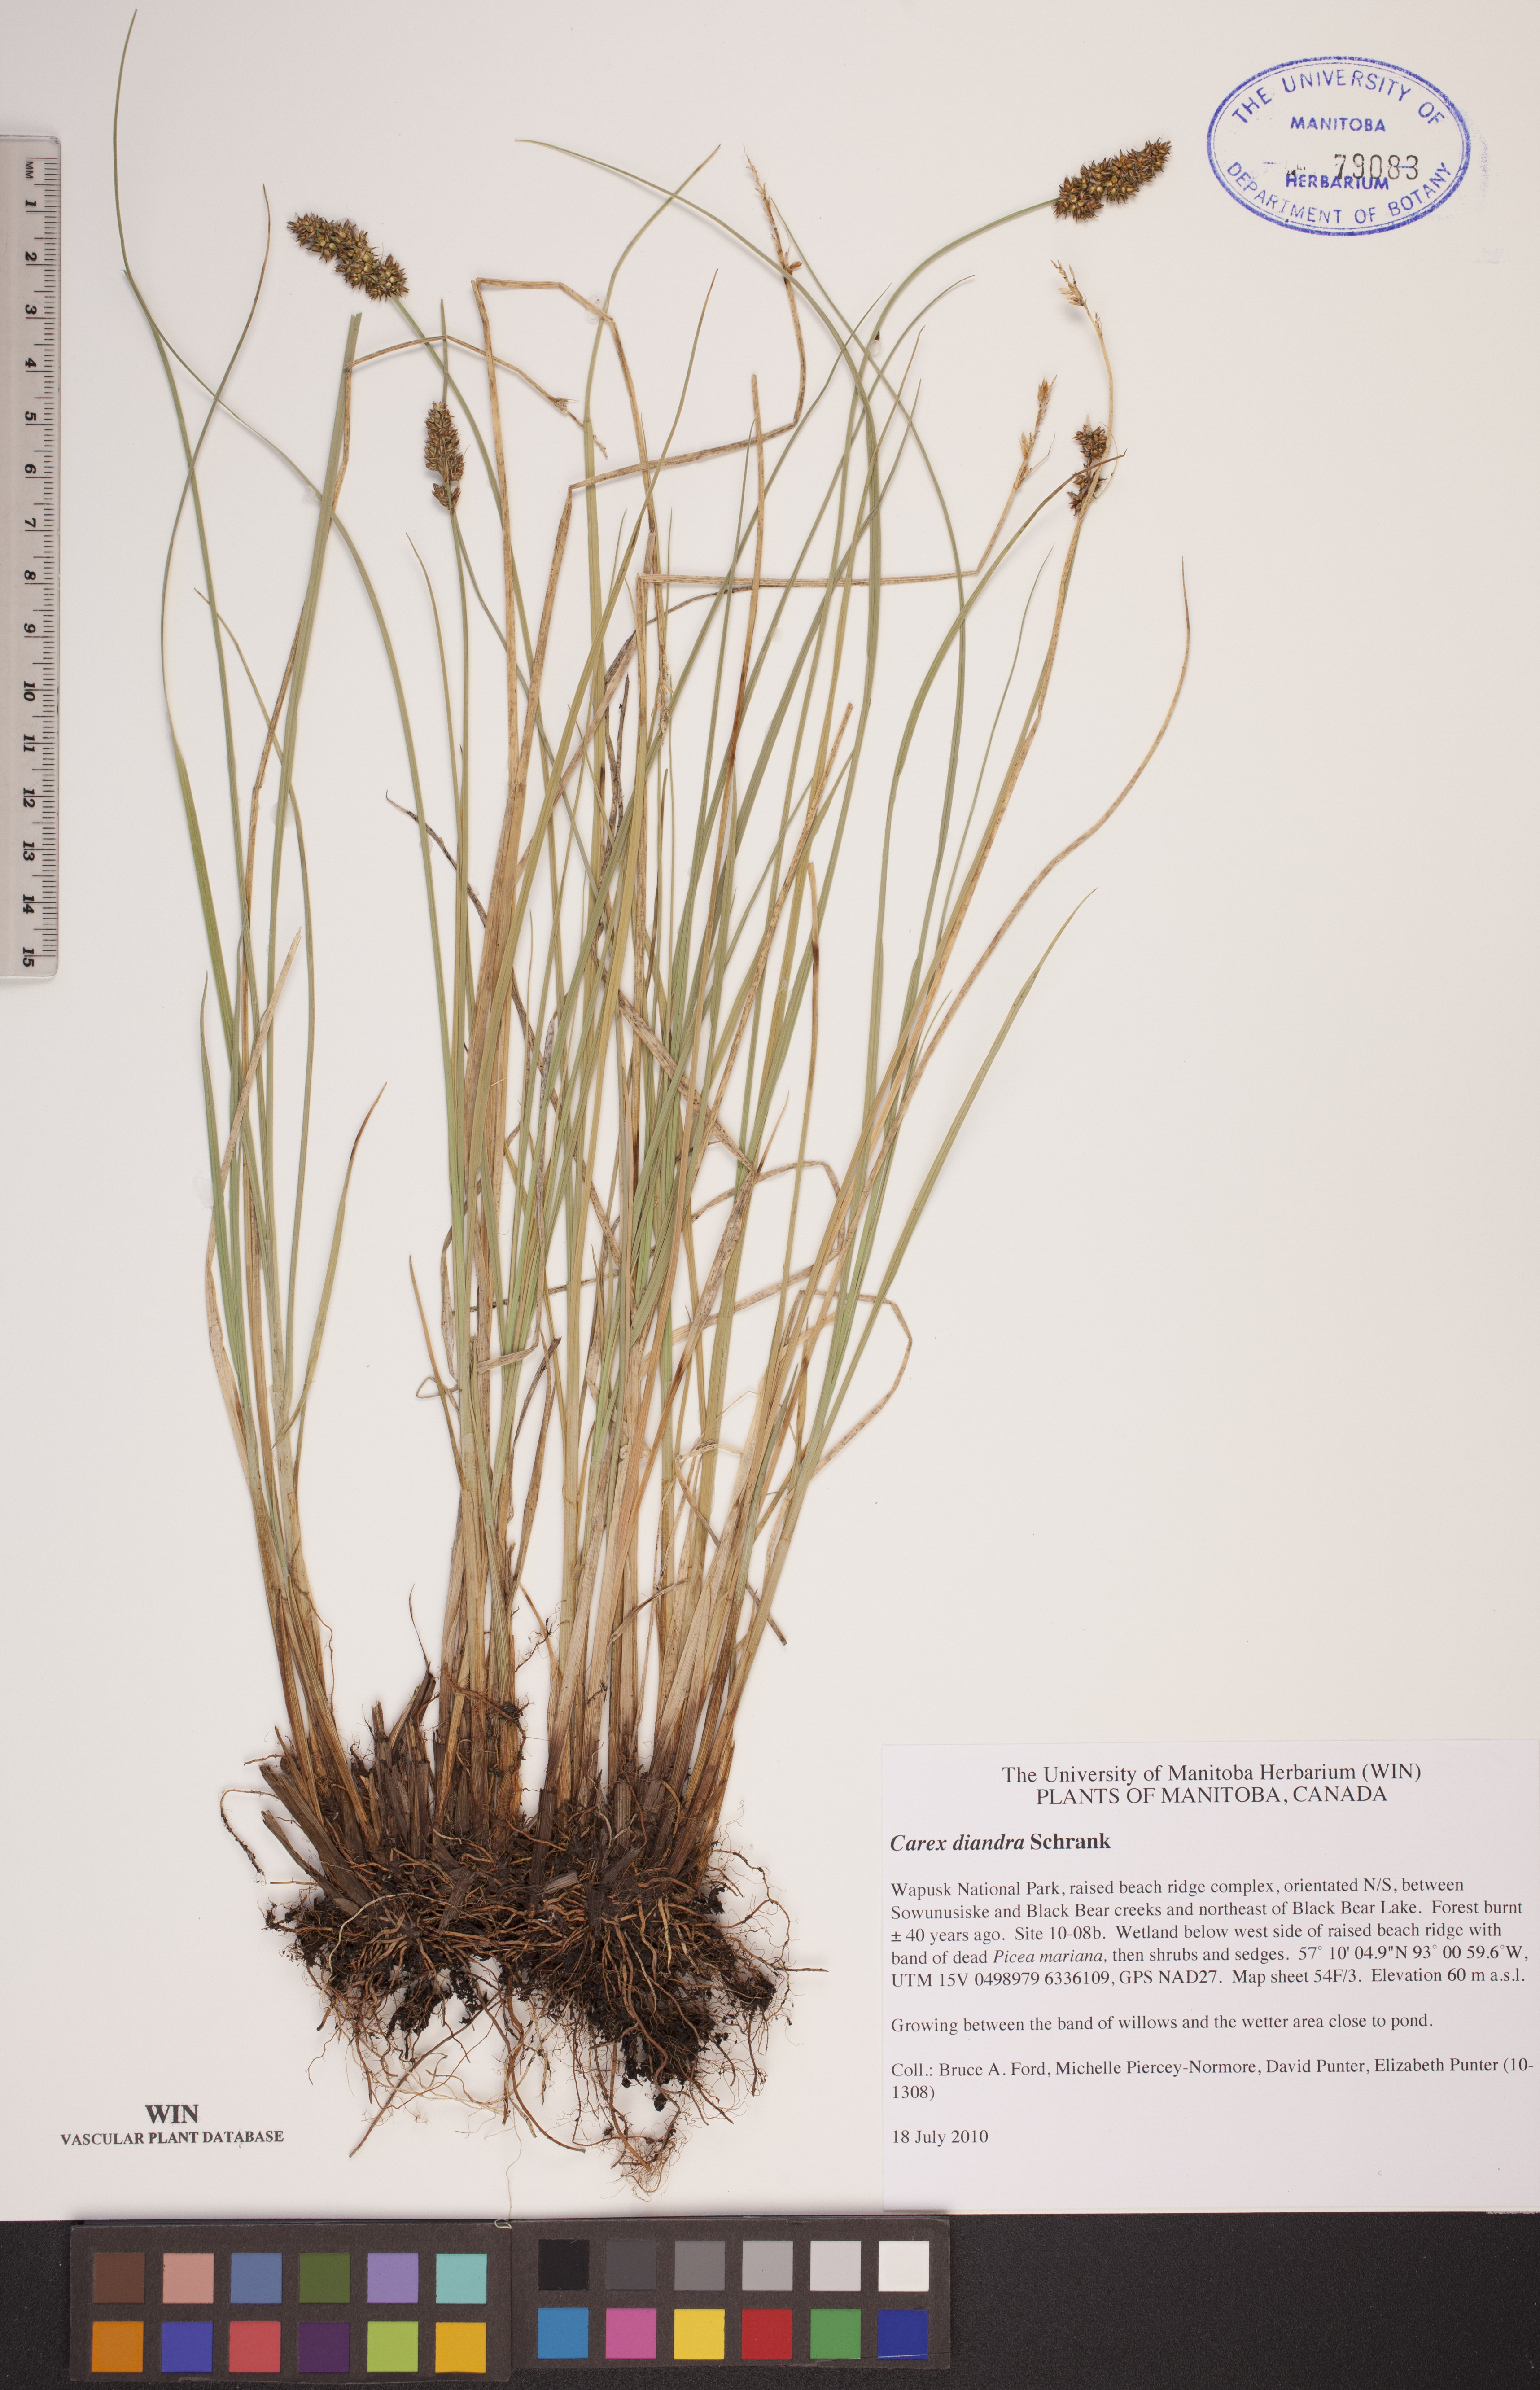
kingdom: Plantae
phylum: Tracheophyta
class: Liliopsida
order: Poales
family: Cyperaceae
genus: Carex
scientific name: Carex diandra
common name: Lesser tussock-sedge
